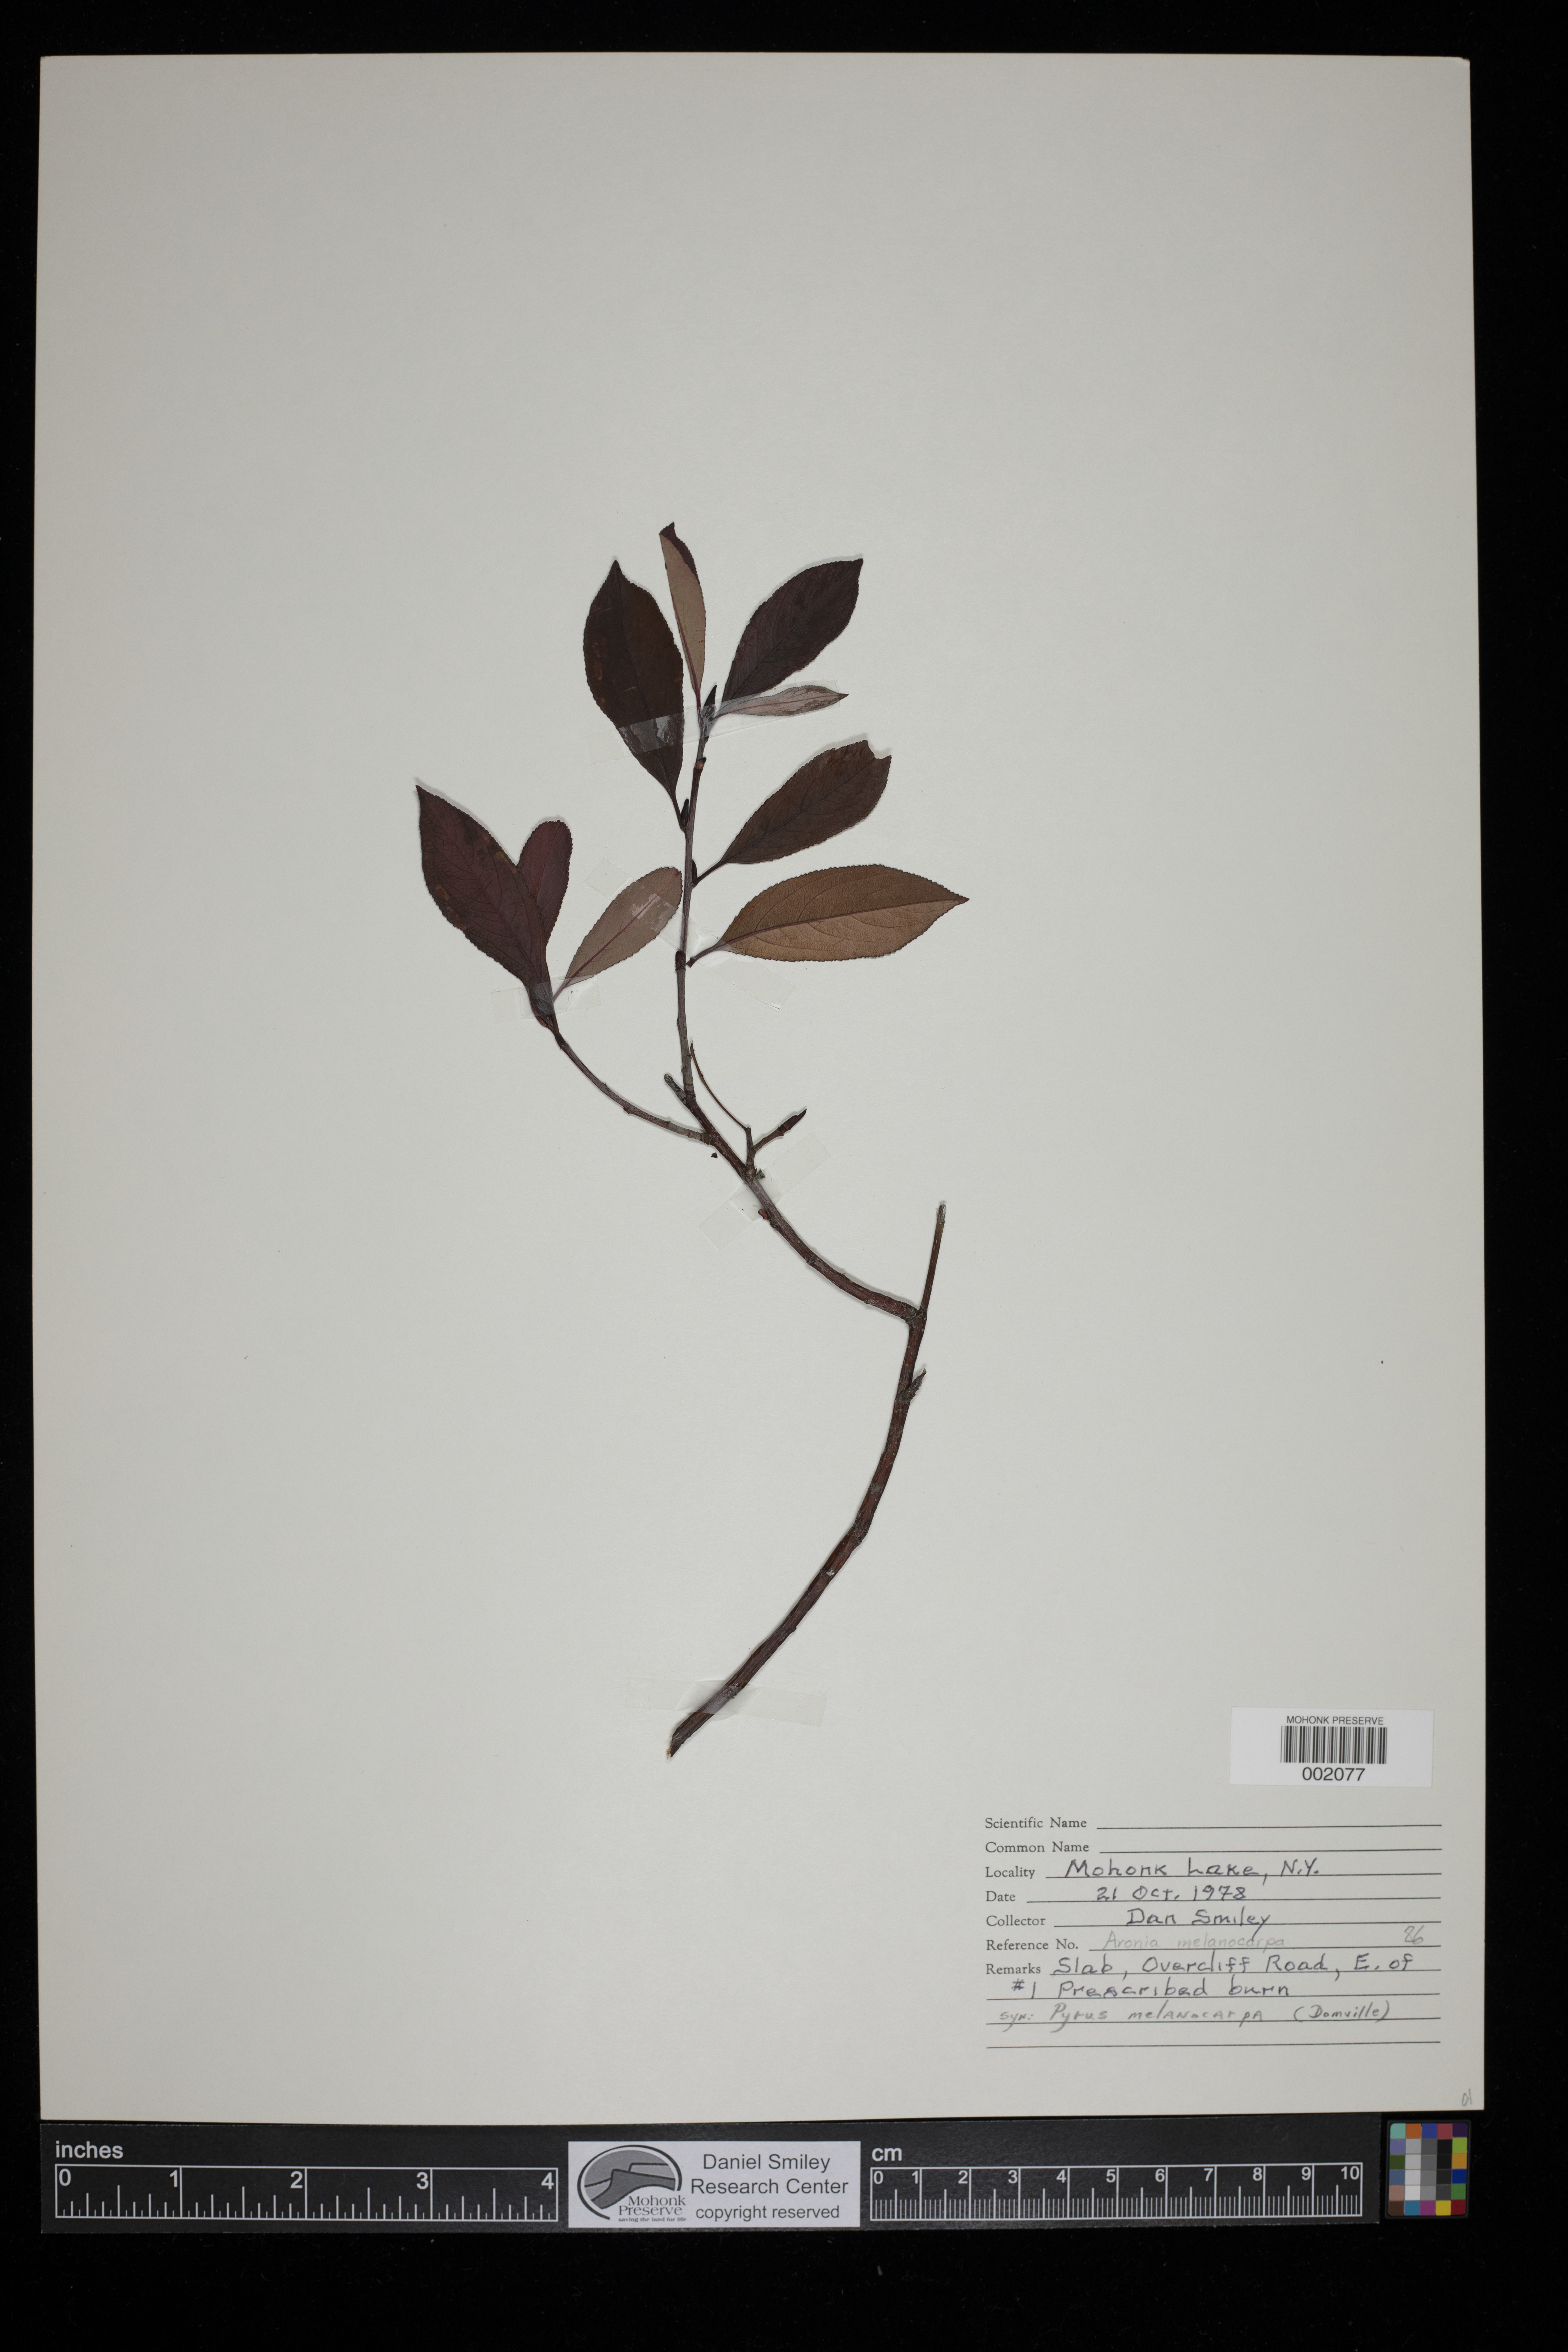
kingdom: Plantae
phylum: Tracheophyta
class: Magnoliopsida
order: Rosales
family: Rosaceae
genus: Aronia
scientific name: Aronia melanocarpa
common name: Black chokeberry
